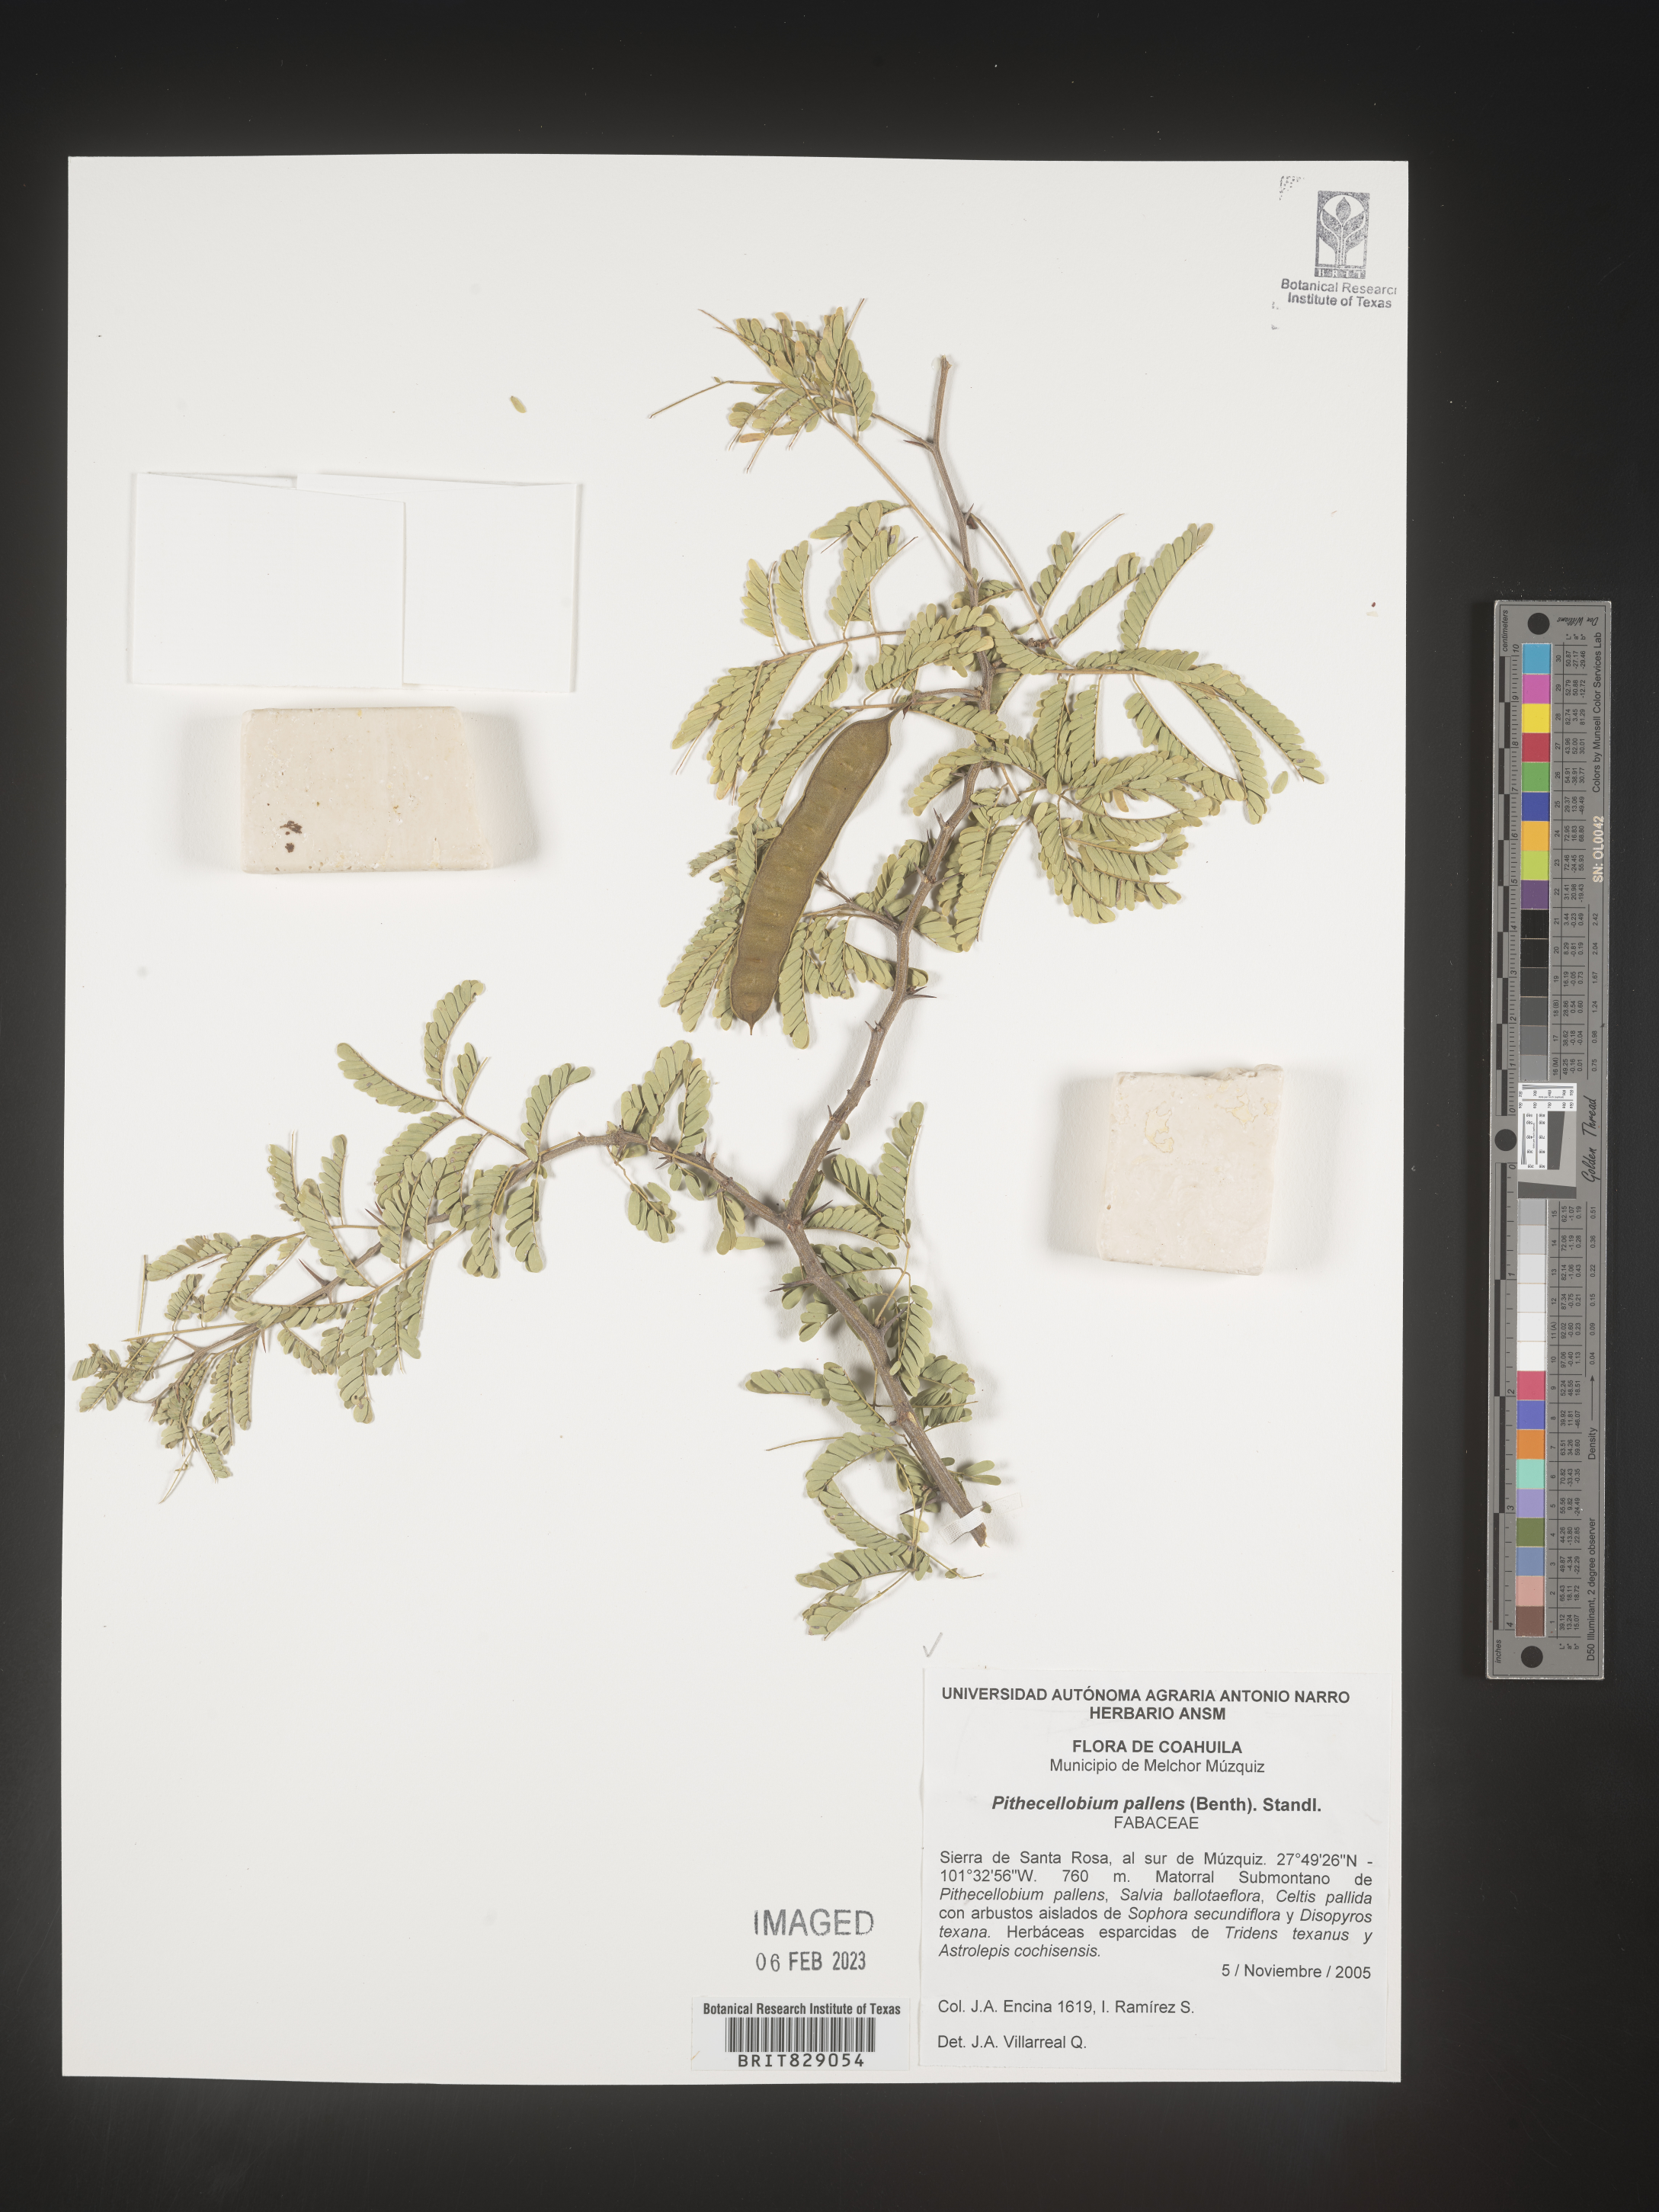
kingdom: Plantae
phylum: Tracheophyta
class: Magnoliopsida
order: Fabales
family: Fabaceae
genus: Pithecellobium
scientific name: Pithecellobium
